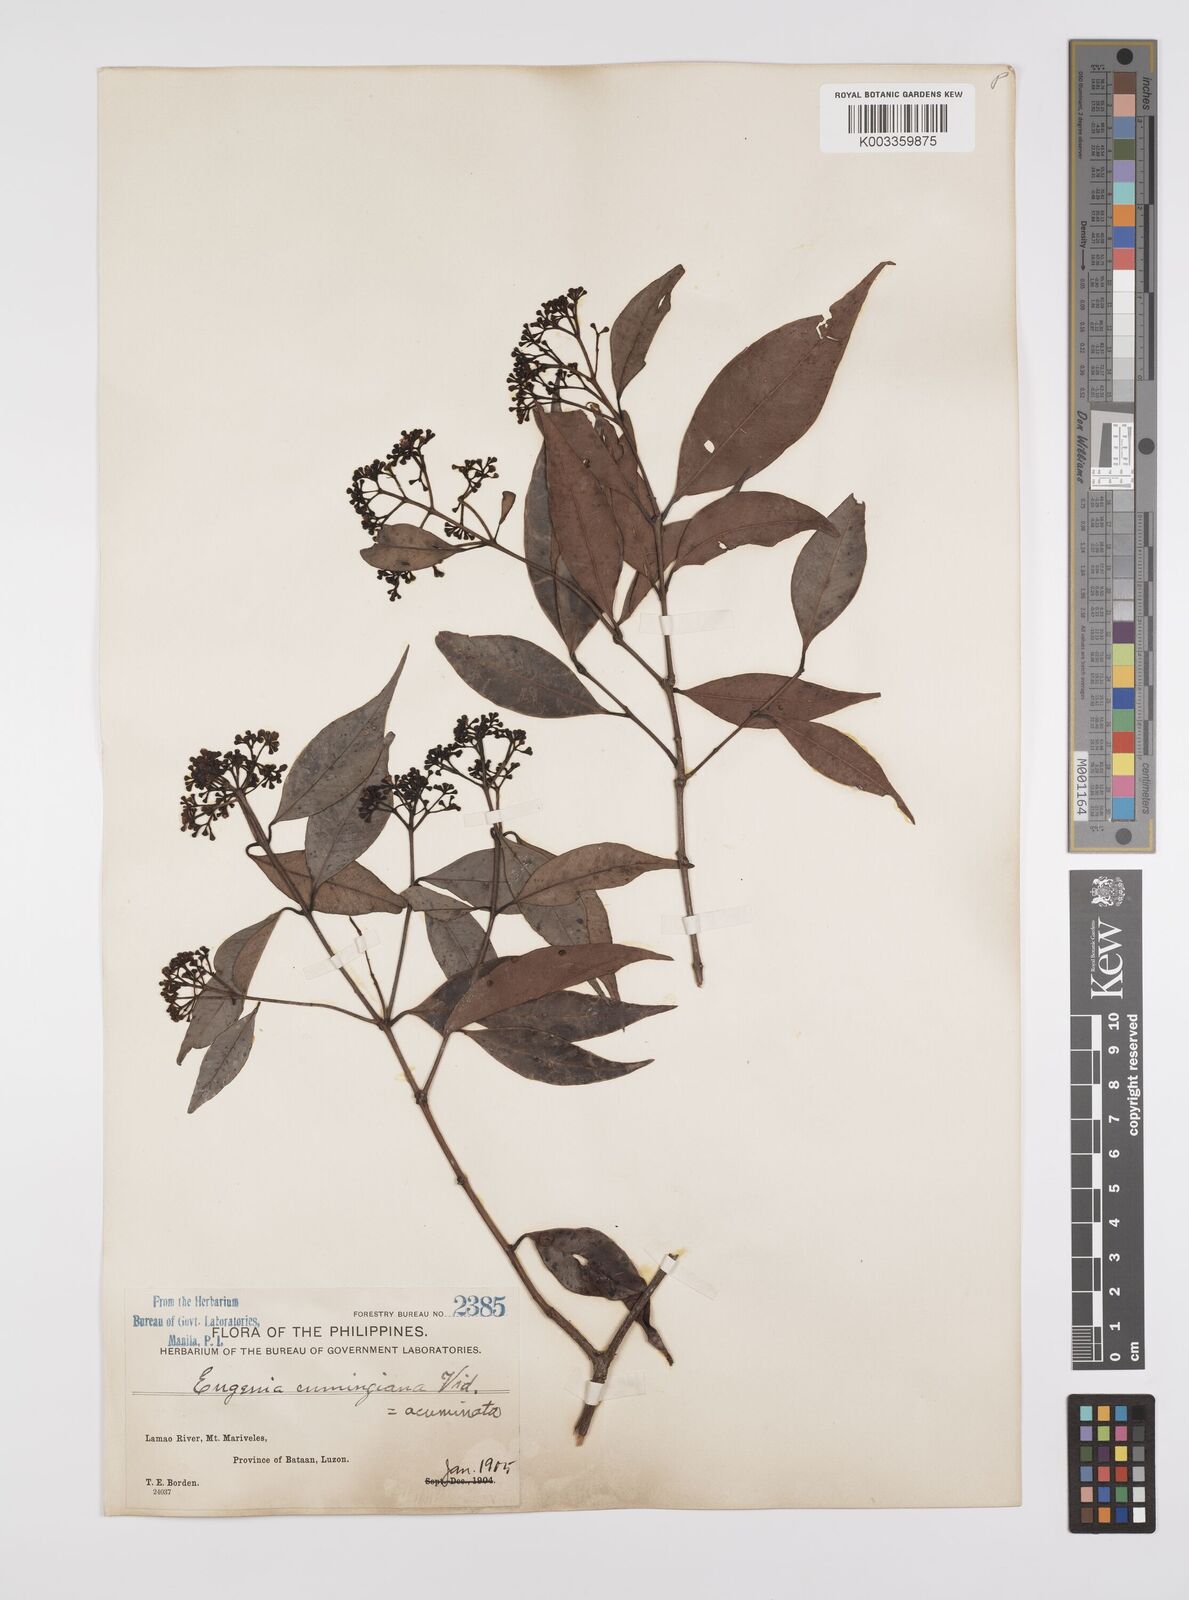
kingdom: Plantae
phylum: Tracheophyta
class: Magnoliopsida
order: Myrtales
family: Myrtaceae
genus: Syzygium
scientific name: Syzygium
